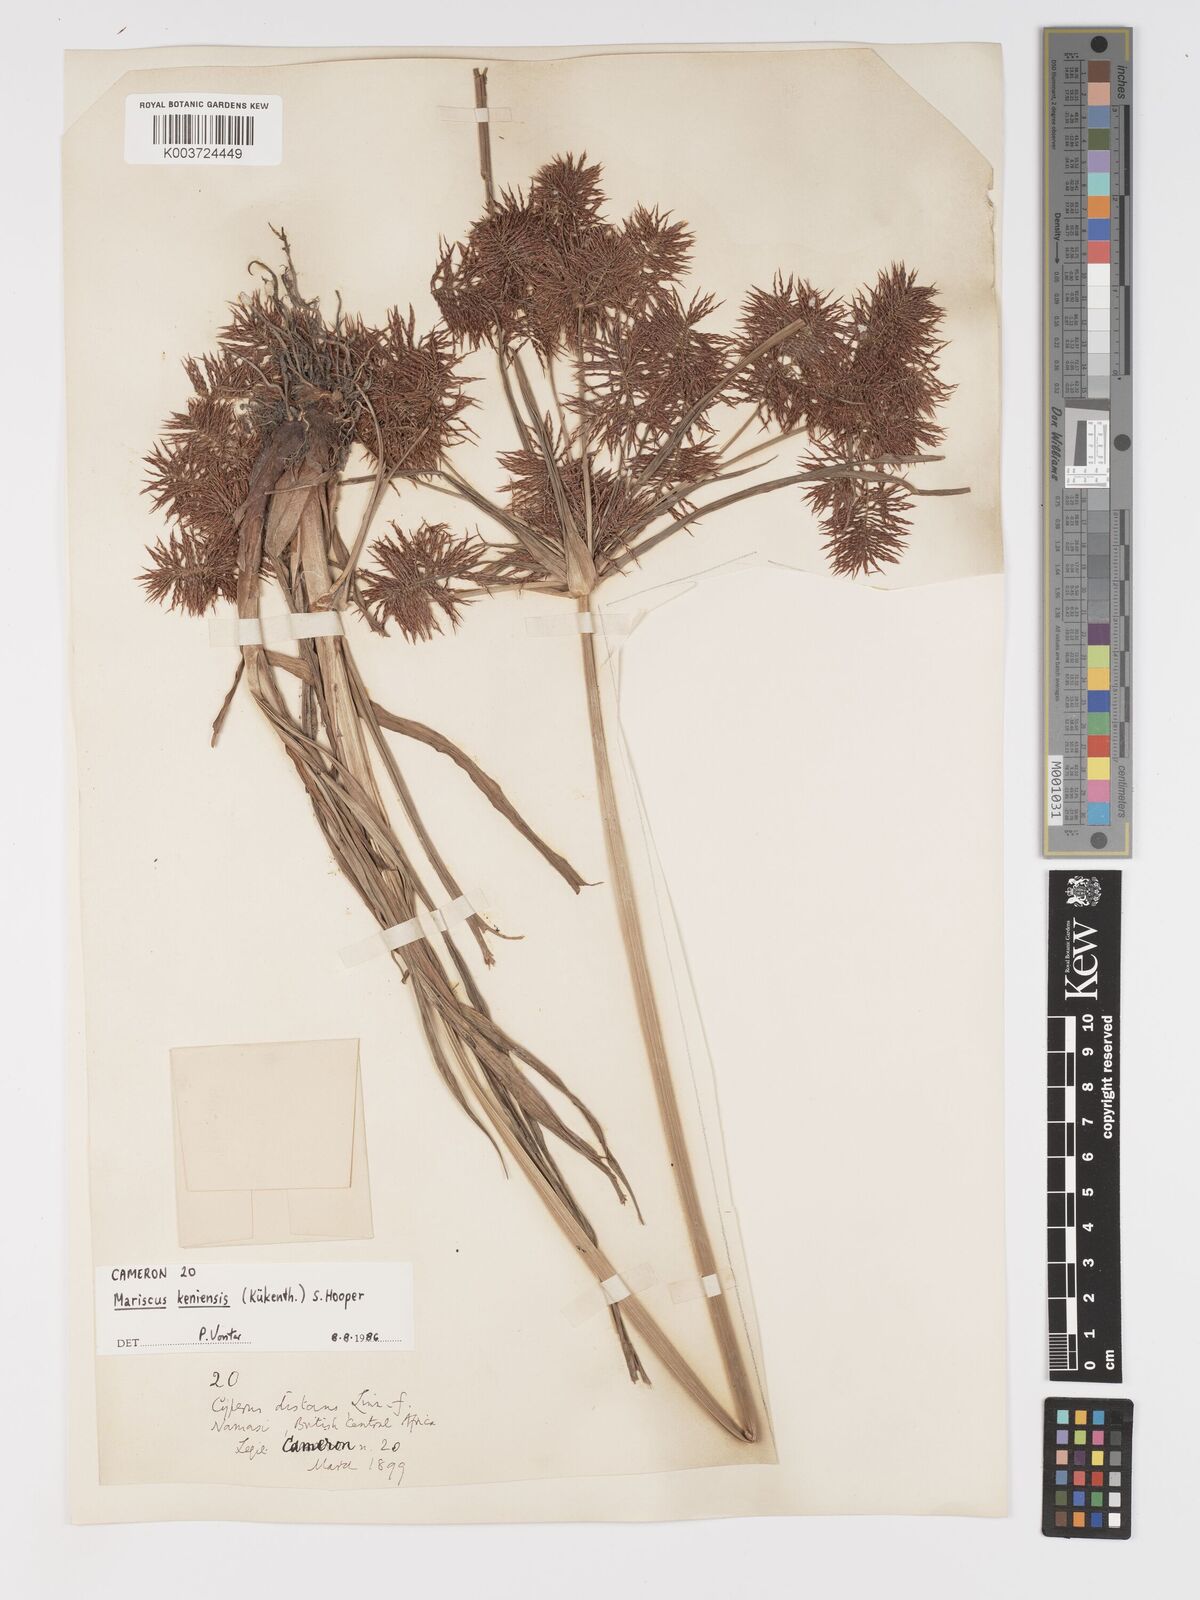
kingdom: Plantae
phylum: Tracheophyta
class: Liliopsida
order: Poales
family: Cyperaceae
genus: Cyperus
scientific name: Cyperus
